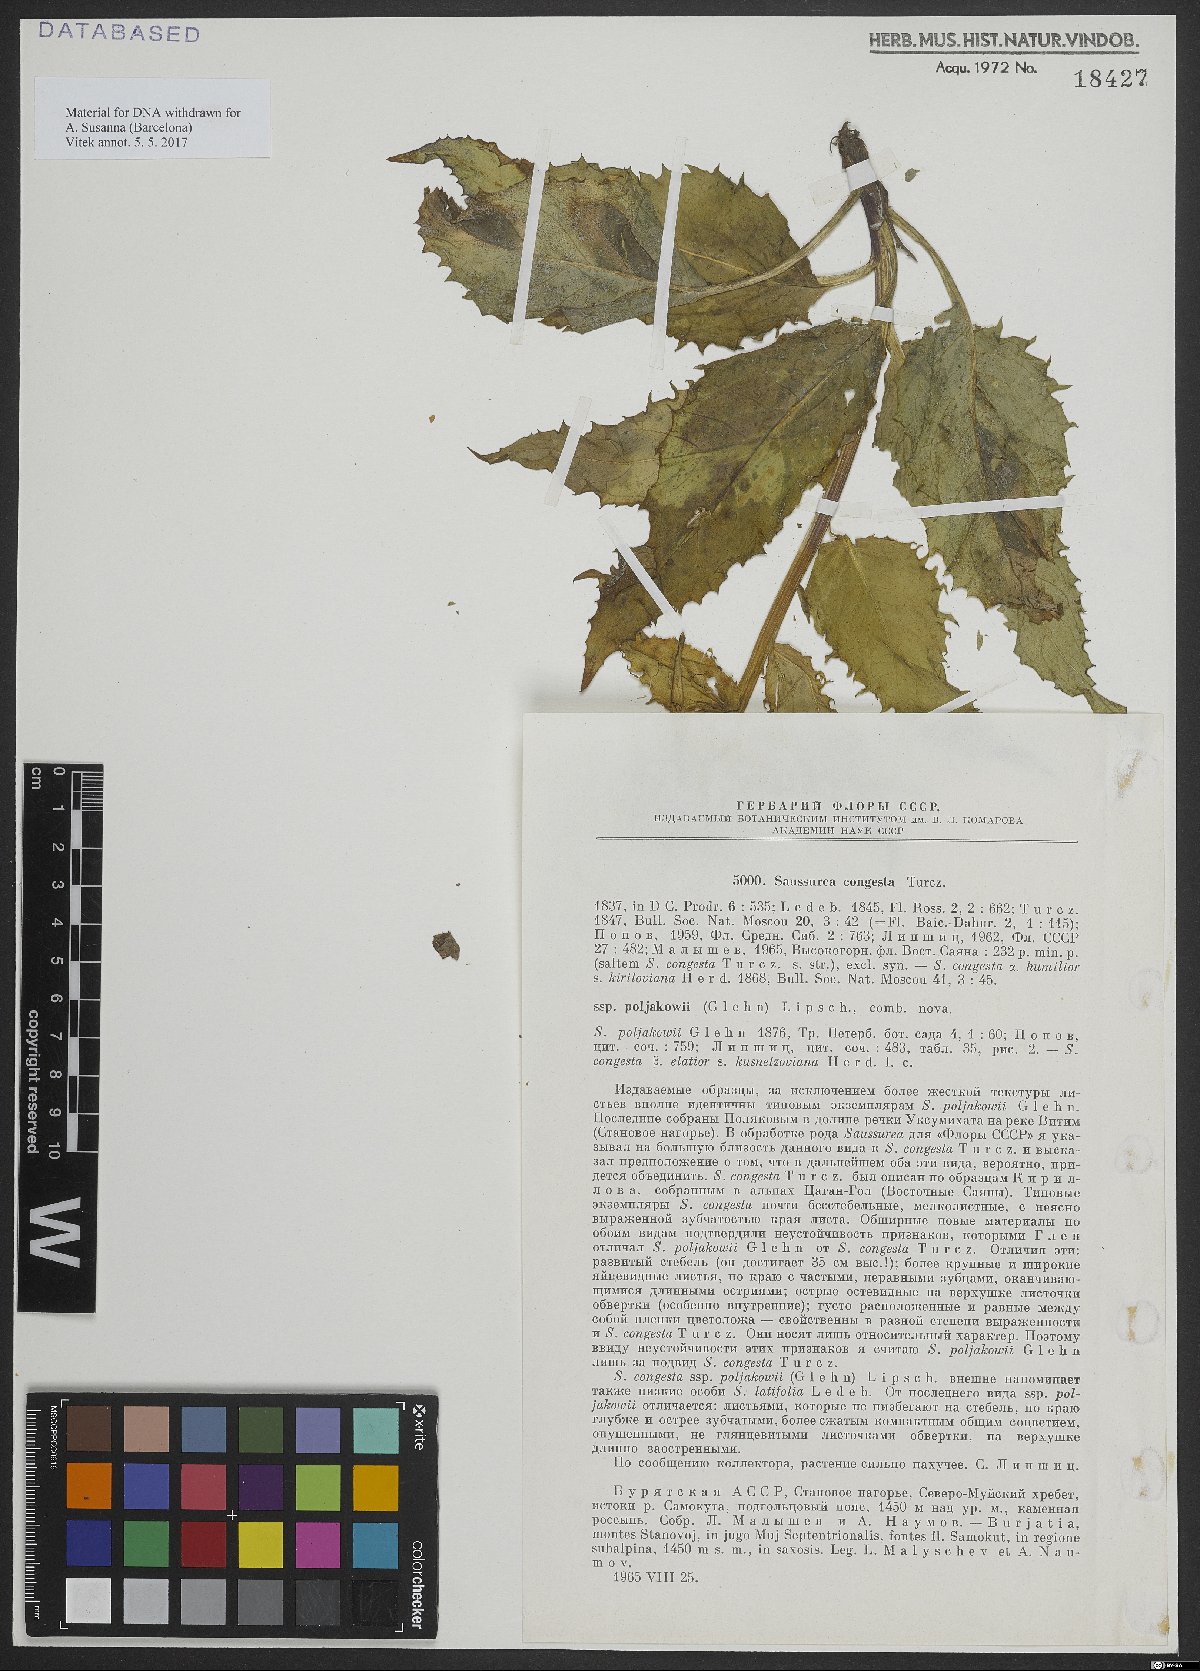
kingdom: Plantae
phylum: Tracheophyta
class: Magnoliopsida
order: Asterales
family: Asteraceae
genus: Saussurea
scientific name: Saussurea congesta
